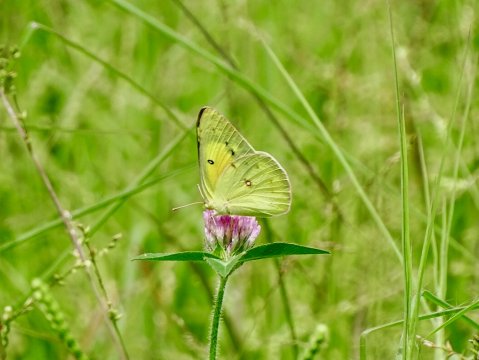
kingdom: Animalia
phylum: Arthropoda
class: Insecta
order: Lepidoptera
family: Pieridae
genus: Colias
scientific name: Colias eurytheme
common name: Orange Sulphur
